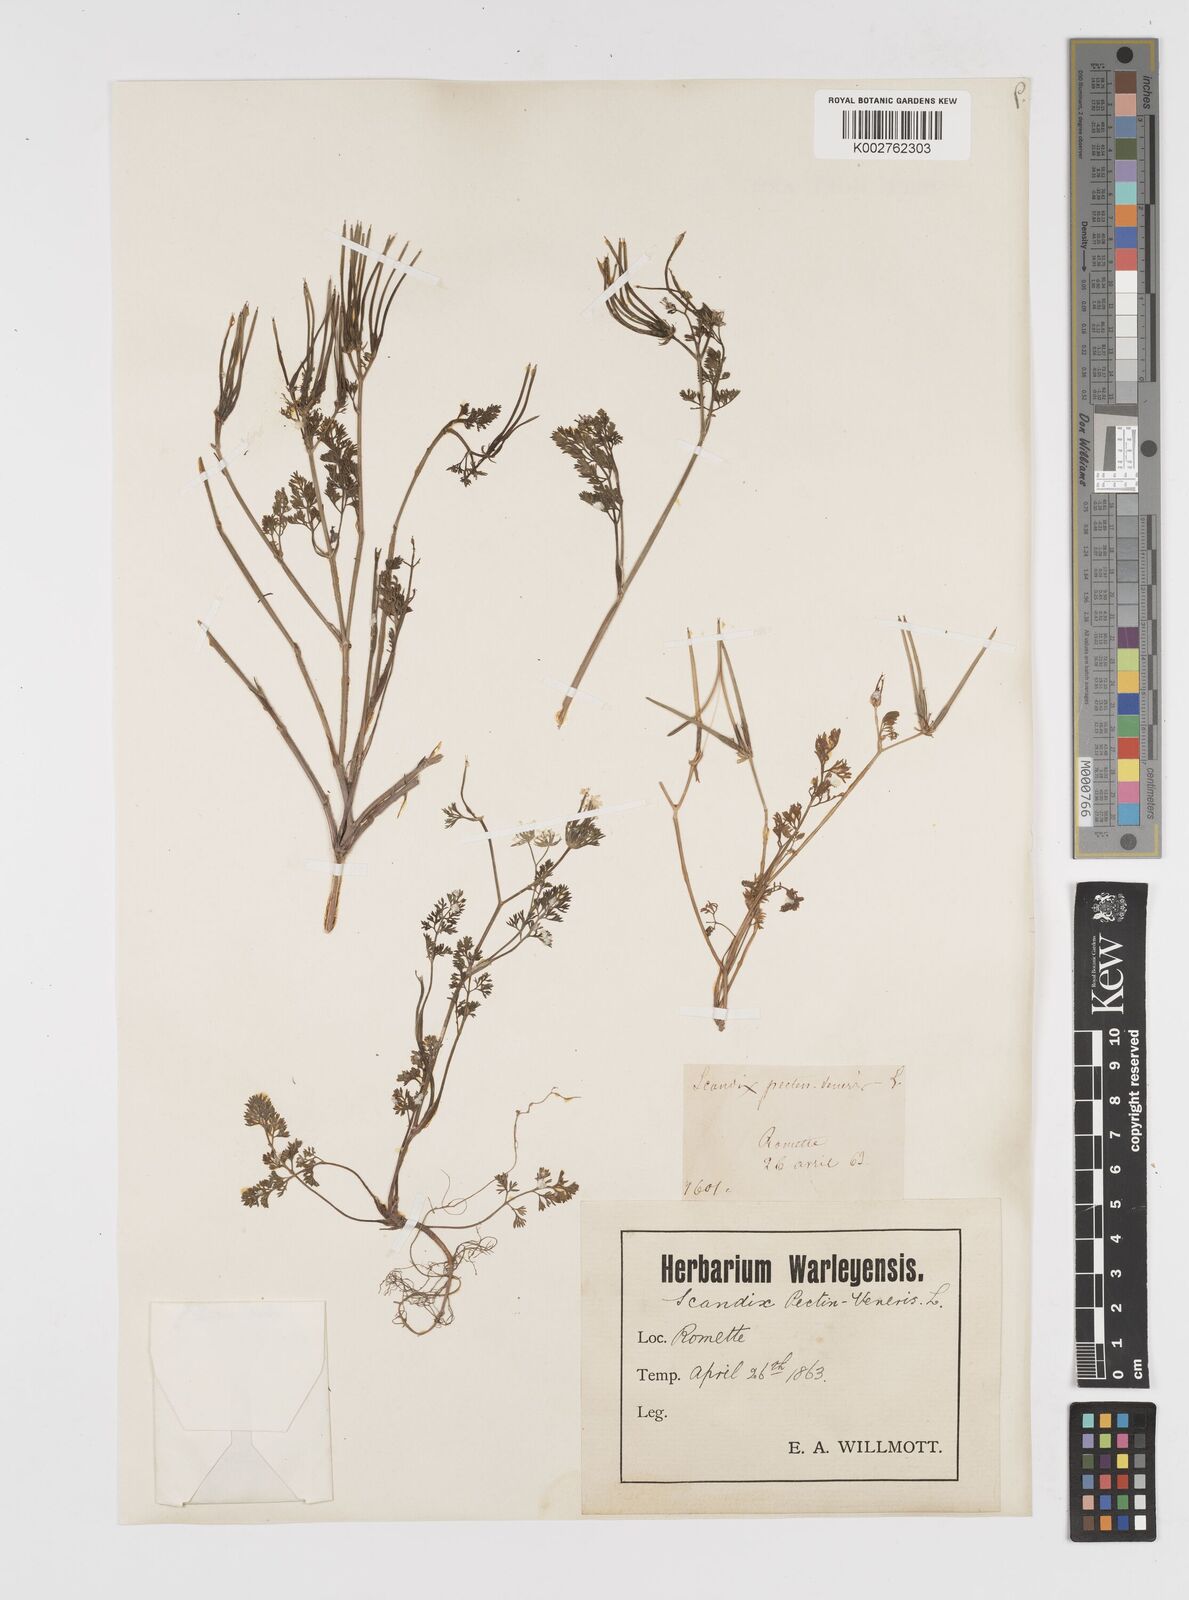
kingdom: Plantae
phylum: Tracheophyta
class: Magnoliopsida
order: Apiales
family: Apiaceae
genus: Scandix
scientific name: Scandix pecten-veneris
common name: Shepherd's-needle
